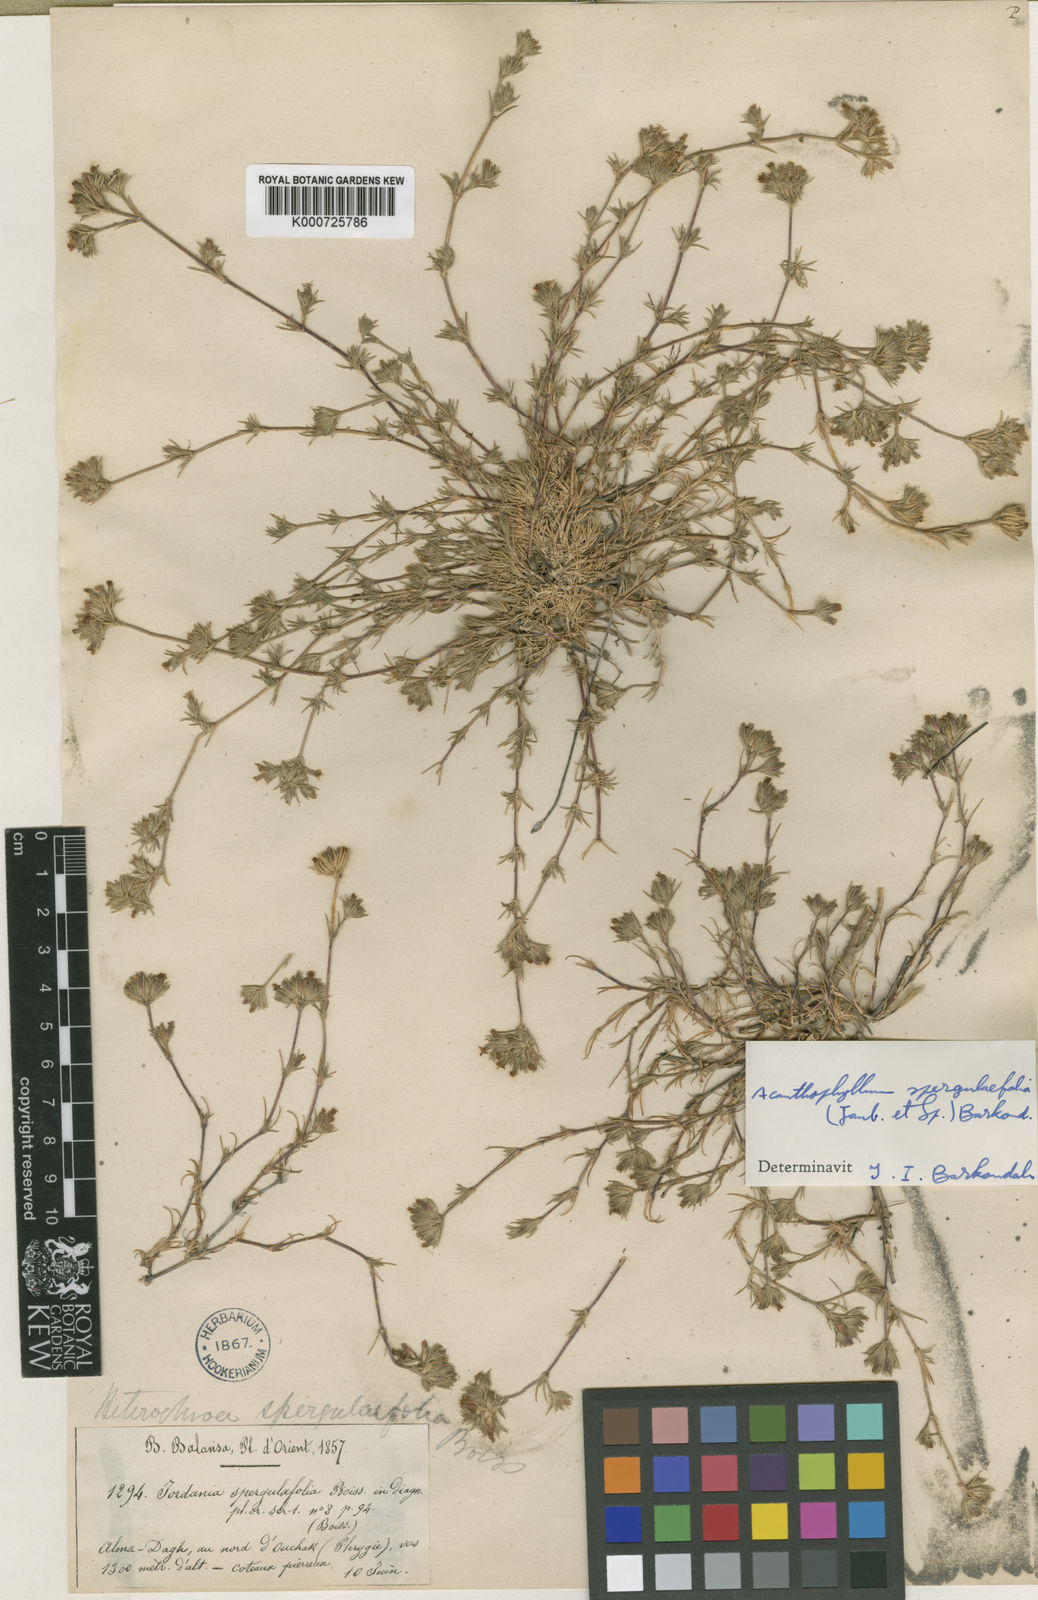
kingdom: Plantae
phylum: Tracheophyta
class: Magnoliopsida
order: Caryophyllales
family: Caryophyllaceae
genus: Bolanthus
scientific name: Bolanthus spergulifolius
